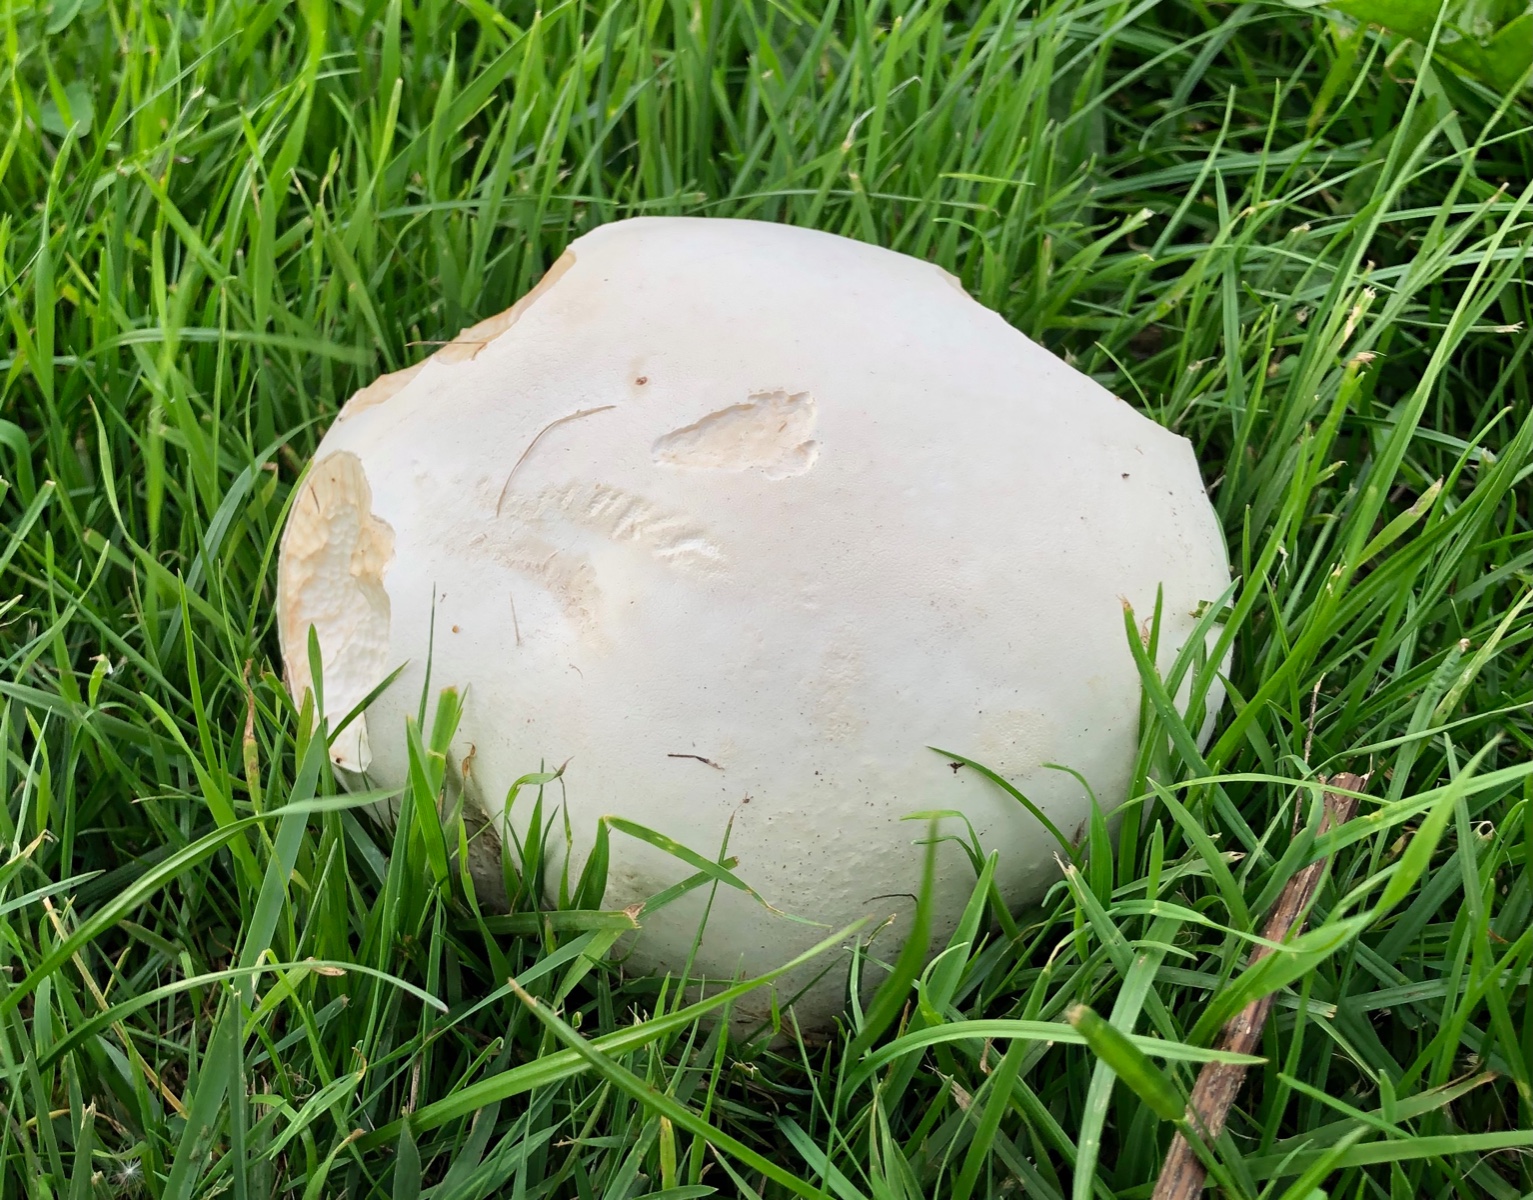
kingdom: Fungi
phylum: Basidiomycota
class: Agaricomycetes
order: Agaricales
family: Lycoperdaceae
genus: Calvatia
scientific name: Calvatia gigantea
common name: kæmpestøvbold
